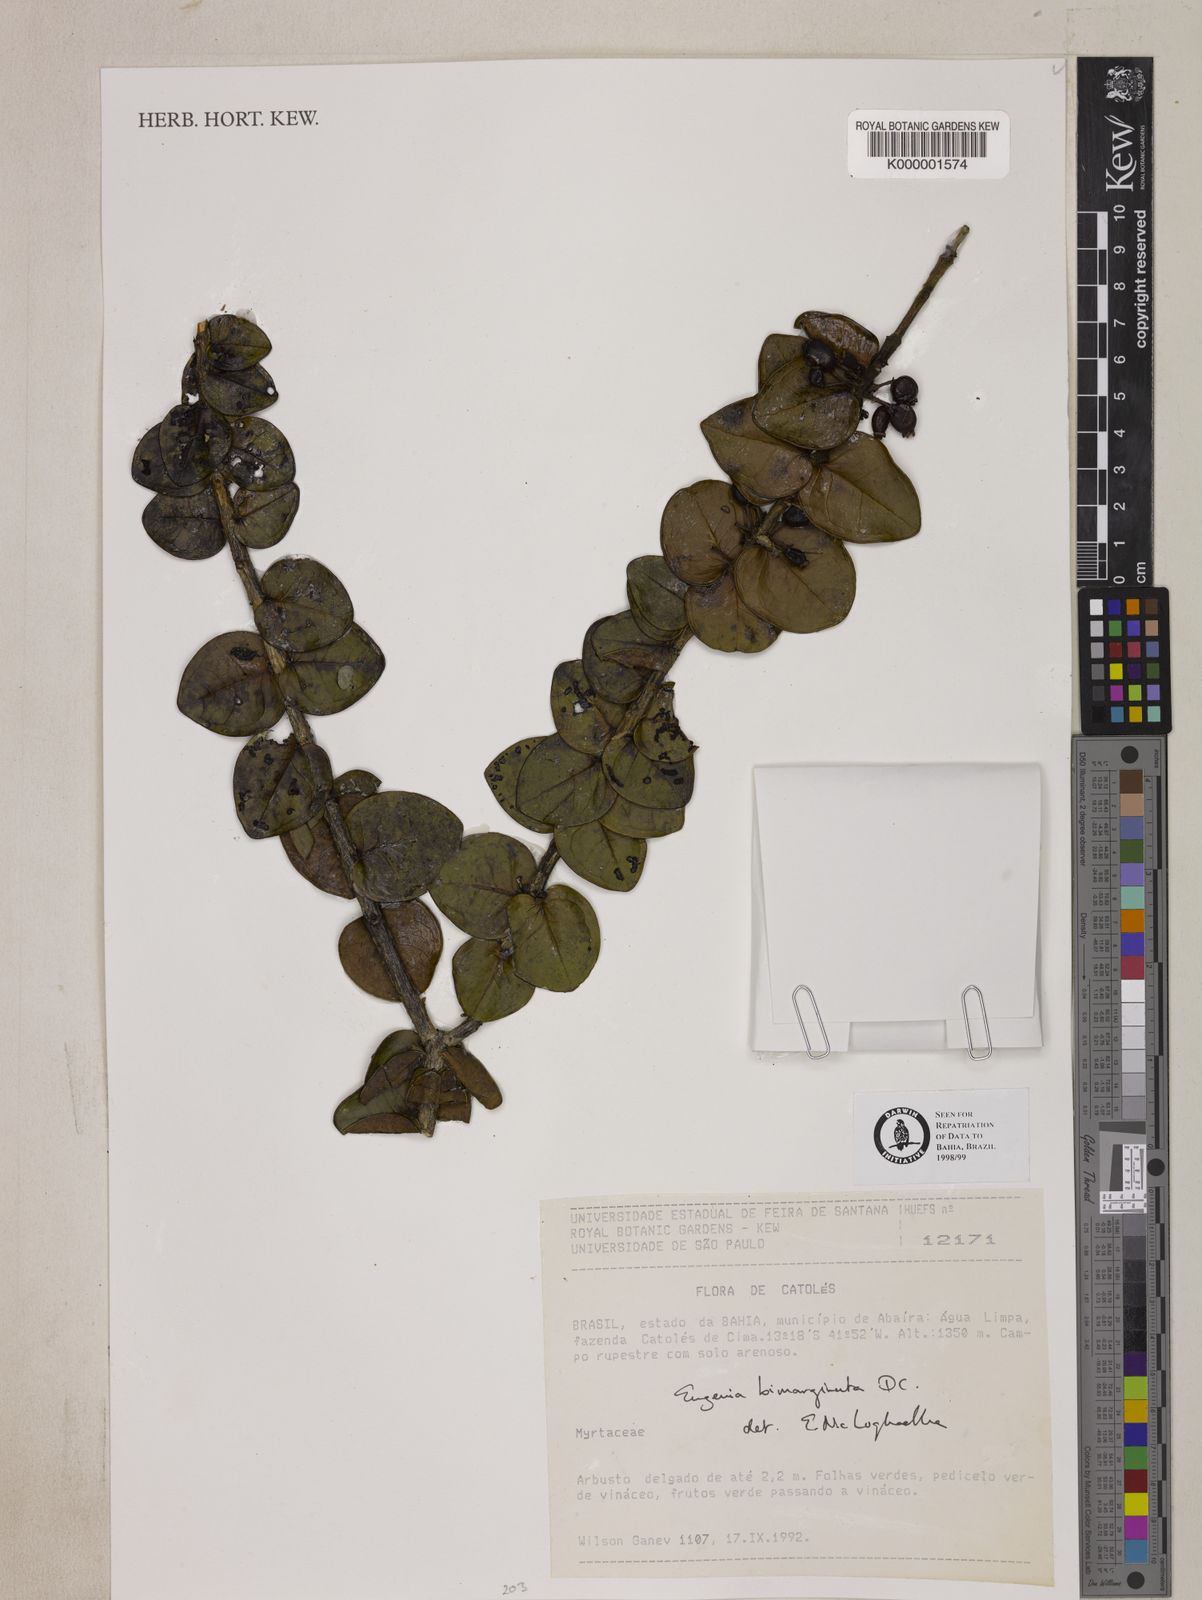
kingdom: Plantae
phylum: Tracheophyta
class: Magnoliopsida
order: Myrtales
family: Myrtaceae
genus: Eugenia
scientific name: Eugenia bimarginata
